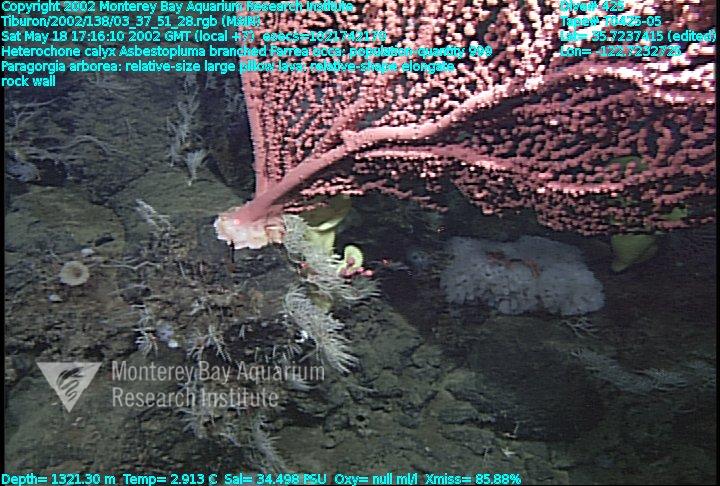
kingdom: Animalia
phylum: Porifera
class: Demospongiae
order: Poecilosclerida
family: Cladorhizidae
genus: Asbestopluma
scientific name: Asbestopluma monticola
